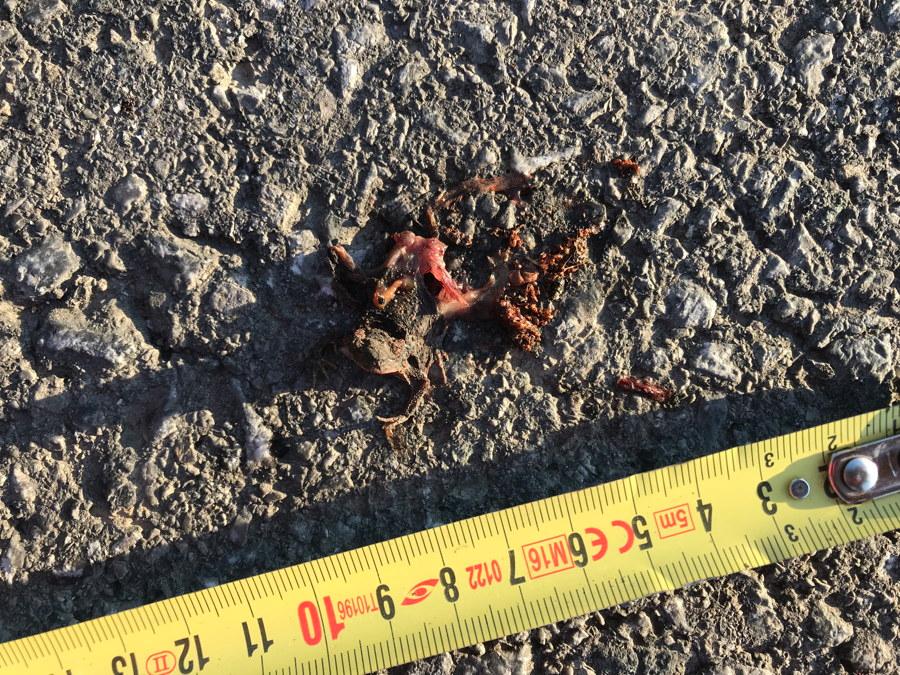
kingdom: Animalia
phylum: Chordata
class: Amphibia
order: Anura
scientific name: Anura
